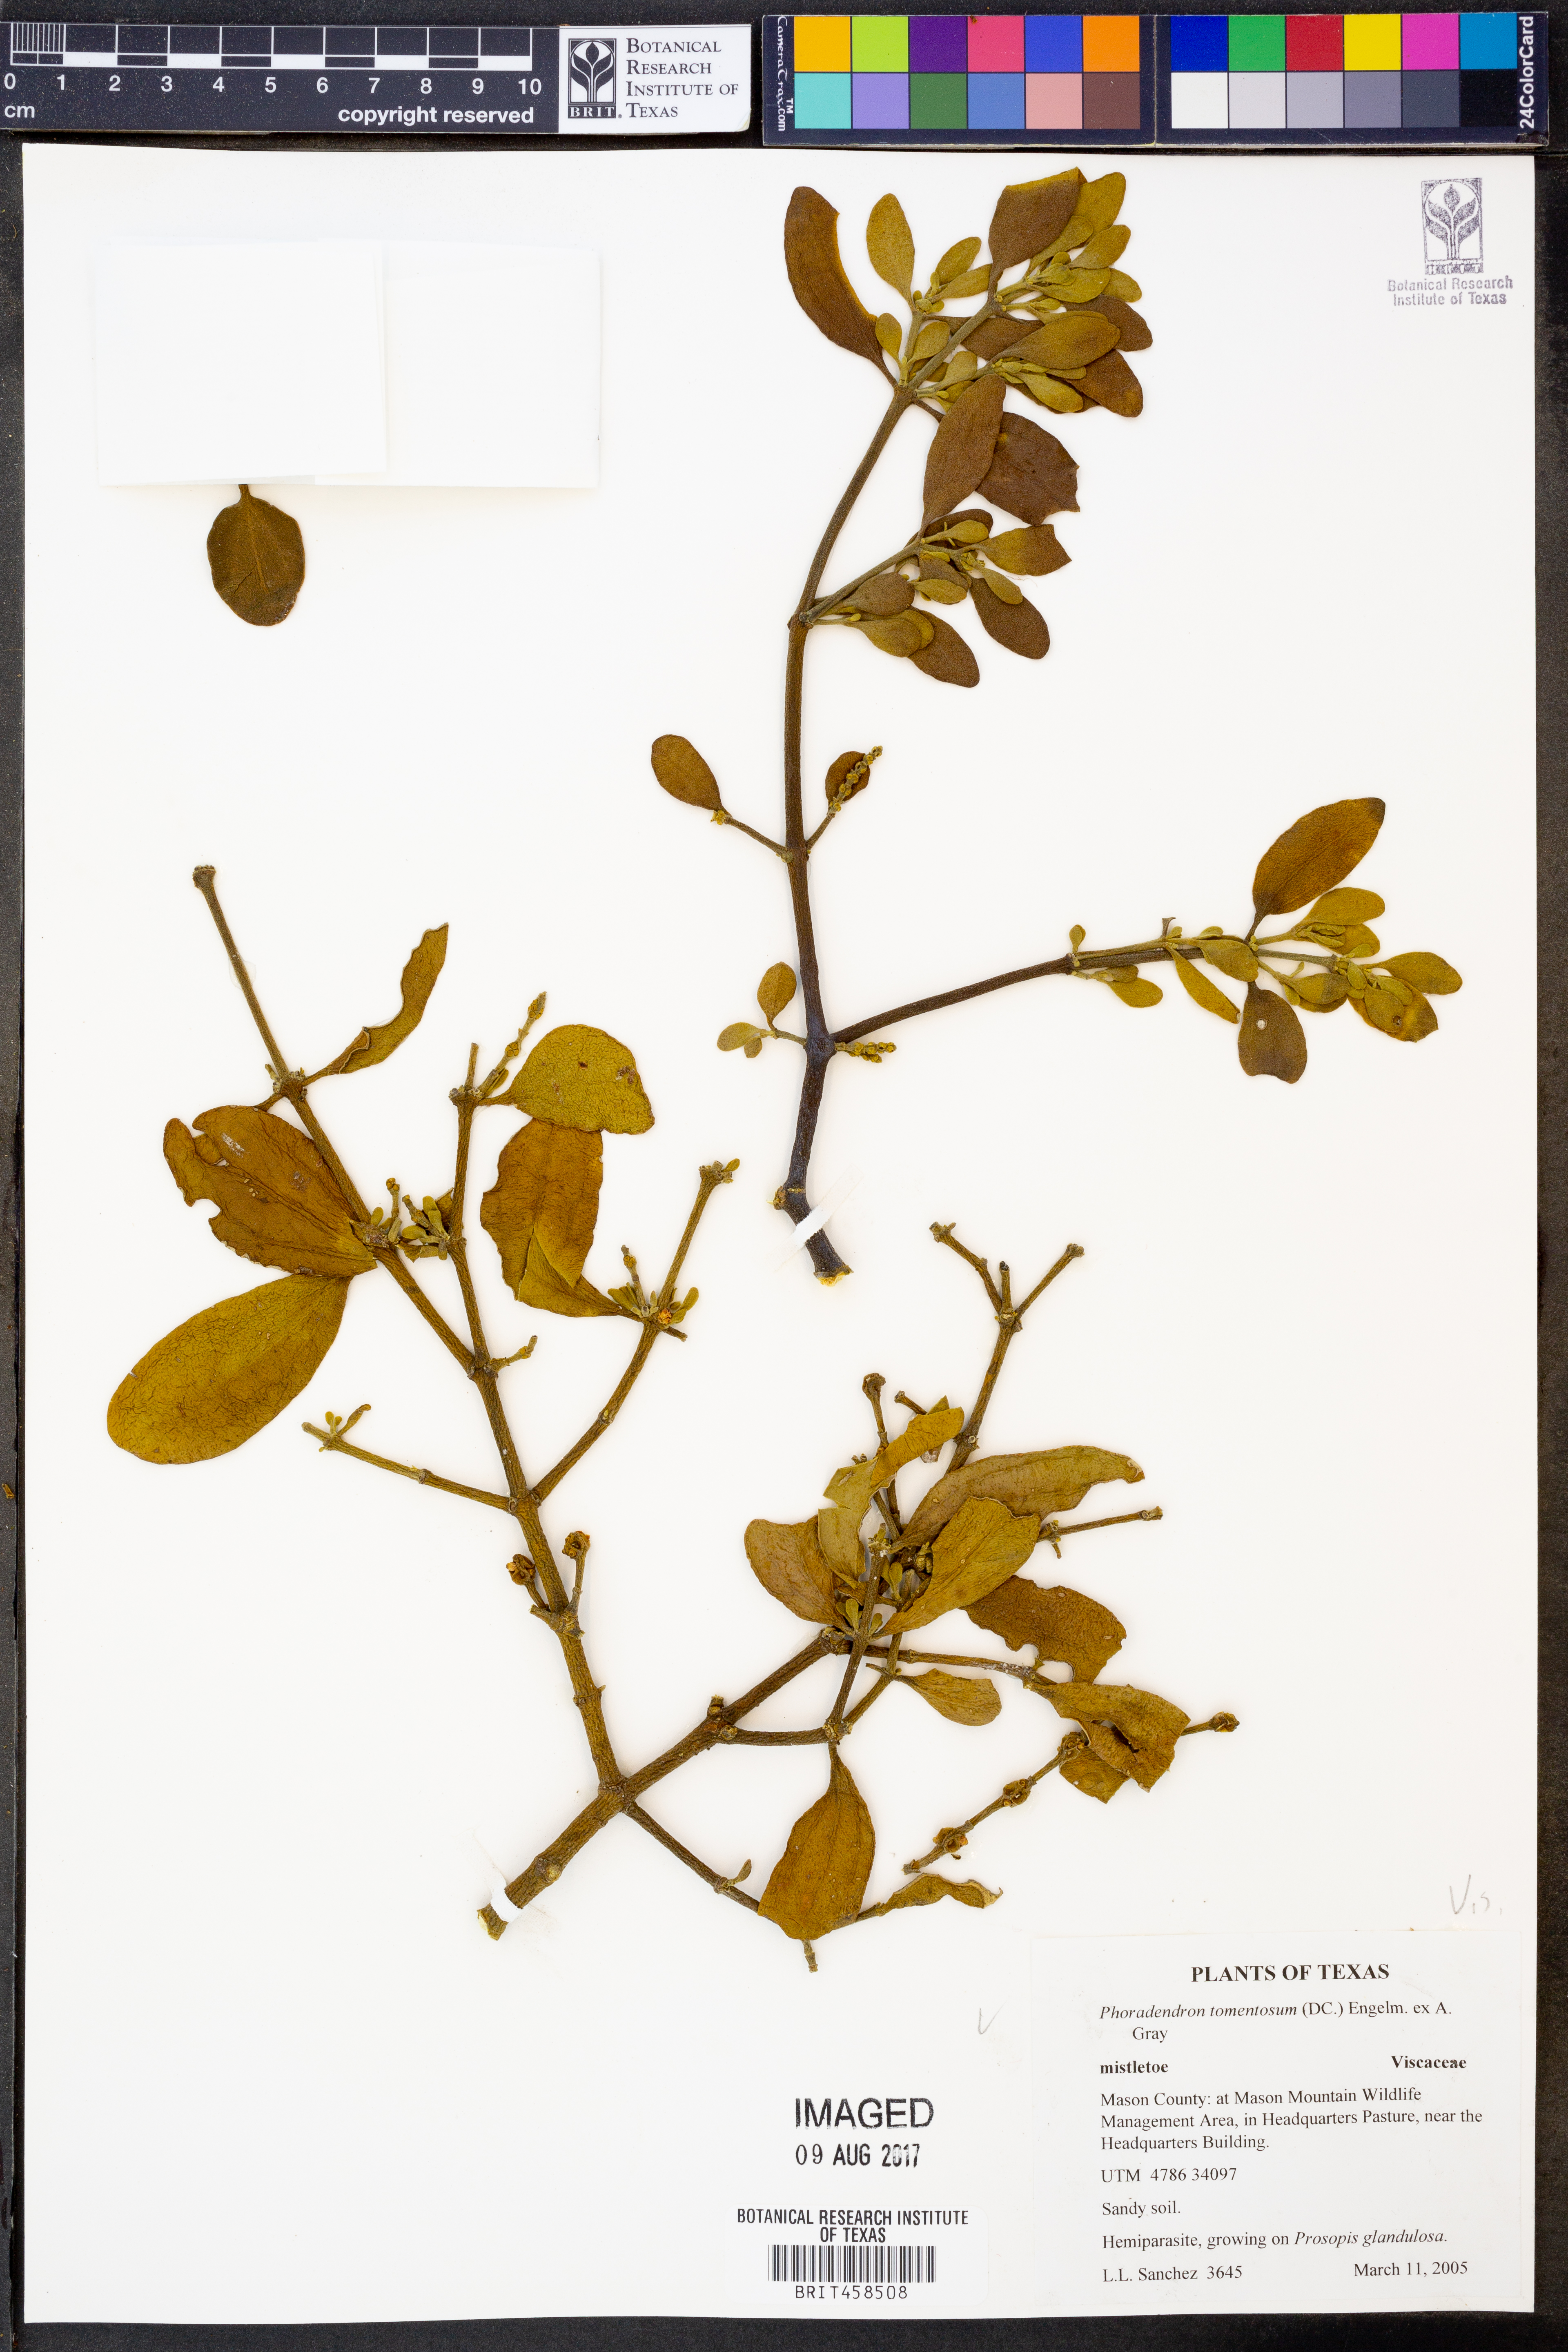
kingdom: Plantae
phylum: Tracheophyta
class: Magnoliopsida
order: Santalales
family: Viscaceae
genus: Phoradendron
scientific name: Phoradendron leucarpum
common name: Pacific mistletoe
